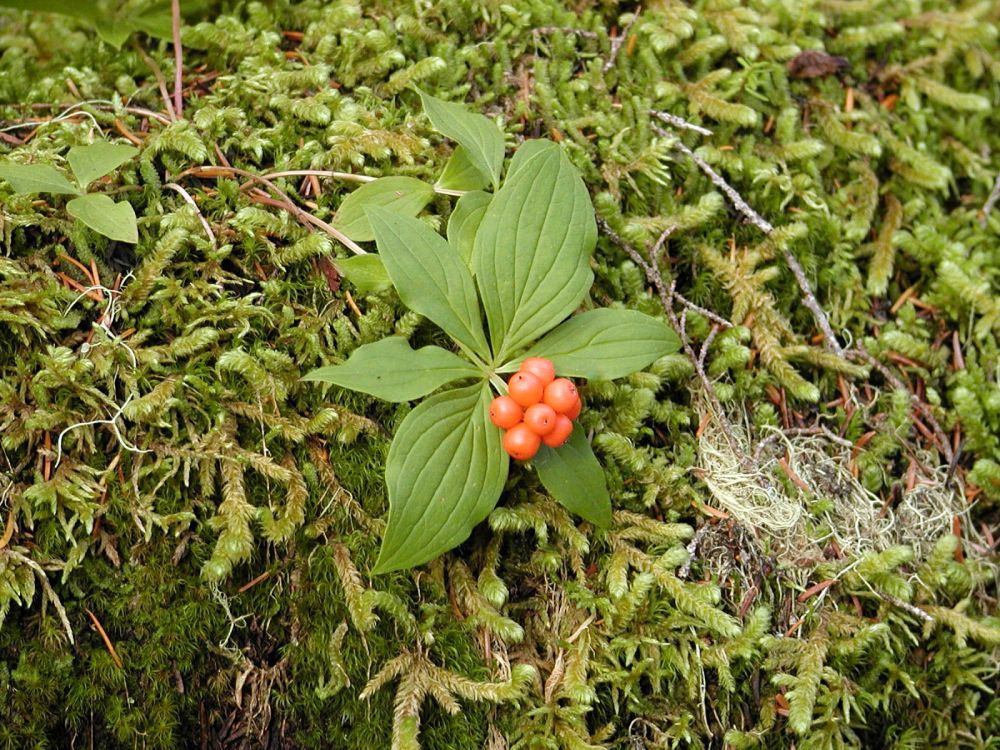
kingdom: Plantae
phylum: Tracheophyta
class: Magnoliopsida
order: Cornales
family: Cornaceae
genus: Cornus
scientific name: Cornus canadensis
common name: Creeping dogwood
